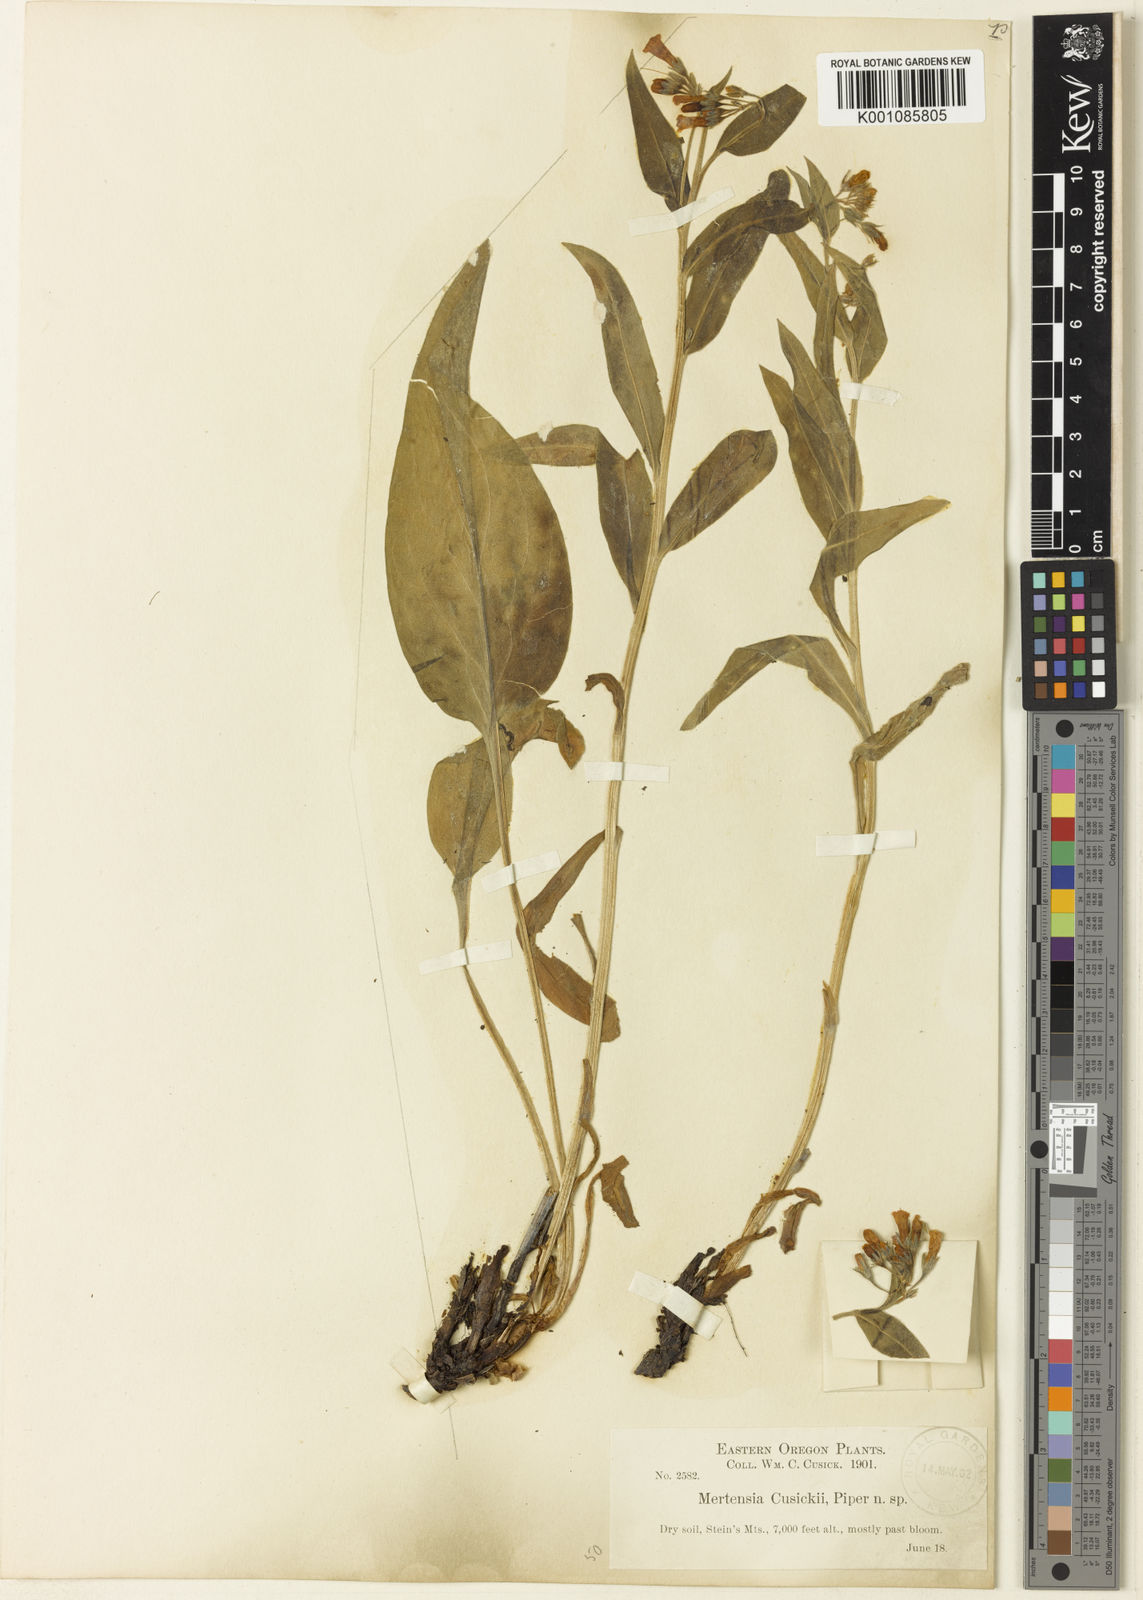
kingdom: Plantae
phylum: Tracheophyta
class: Magnoliopsida
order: Boraginales
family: Boraginaceae
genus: Mertensia
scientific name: Mertensia oblongifolia
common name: Sagebrush bluebells
